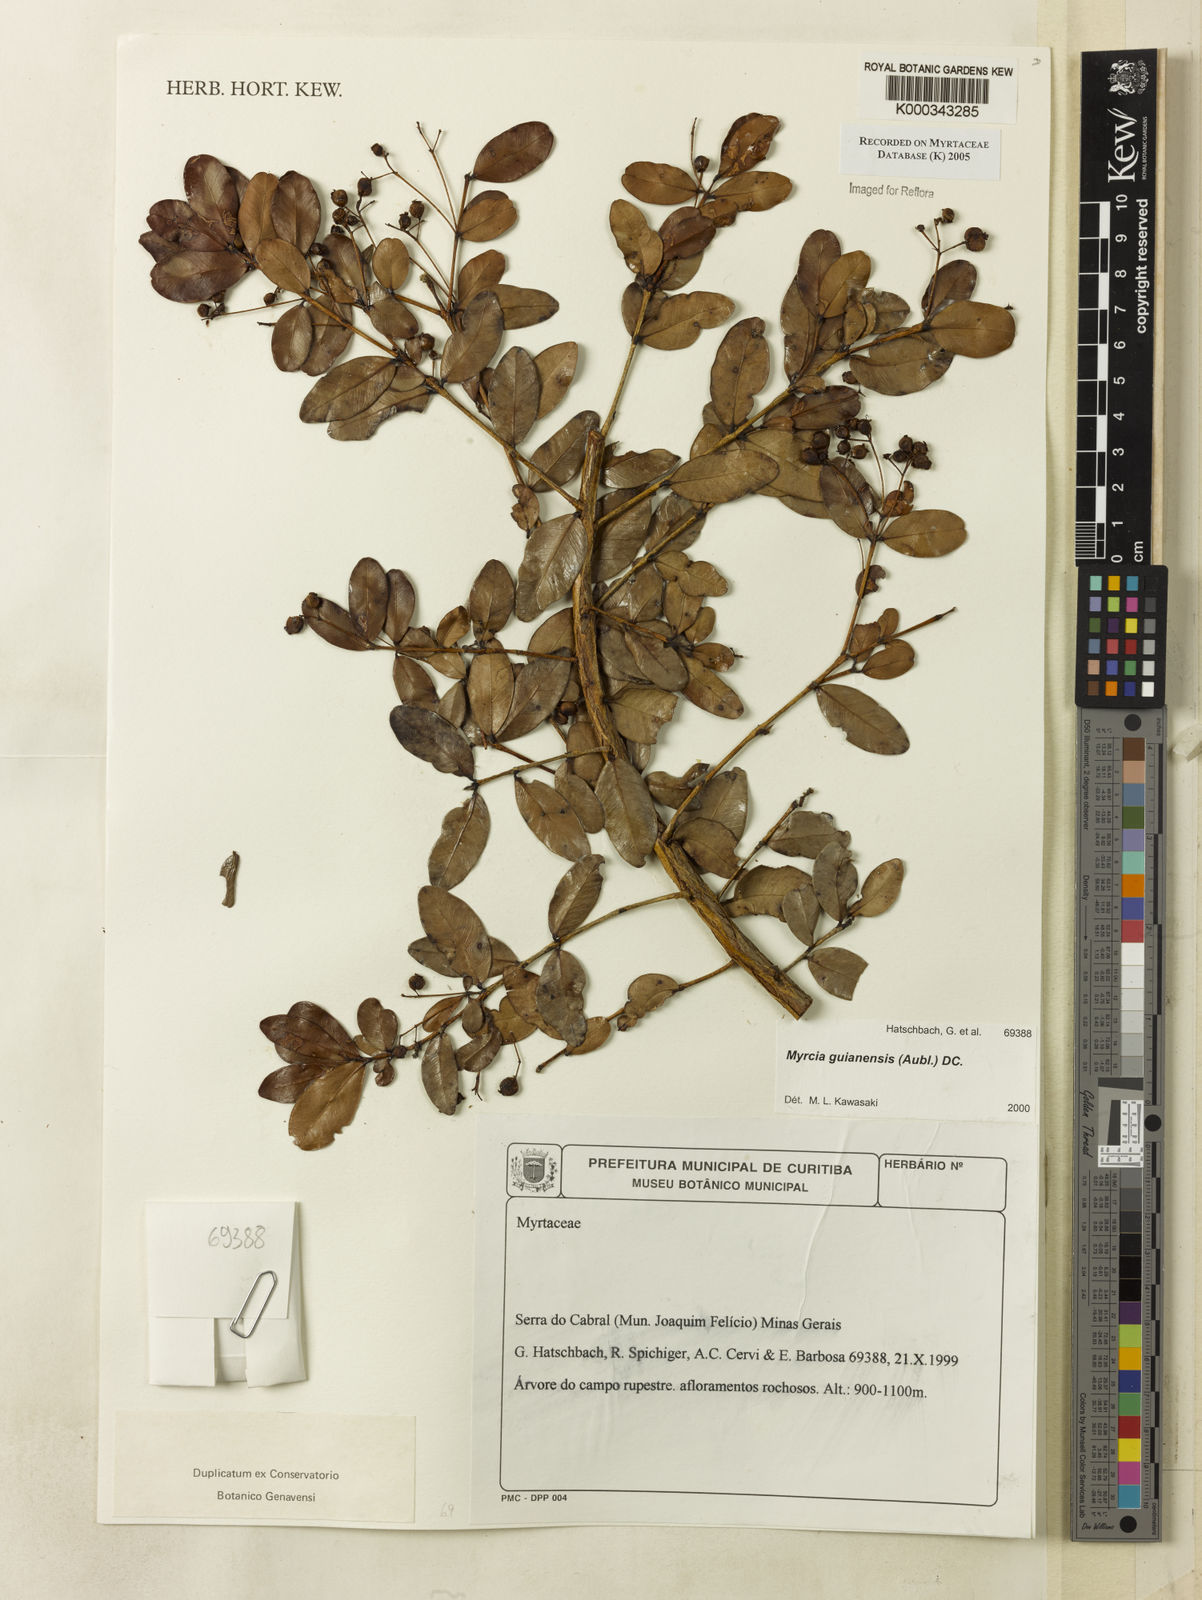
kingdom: Plantae
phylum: Tracheophyta
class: Magnoliopsida
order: Myrtales
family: Myrtaceae
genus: Myrcia
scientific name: Myrcia guianensis
